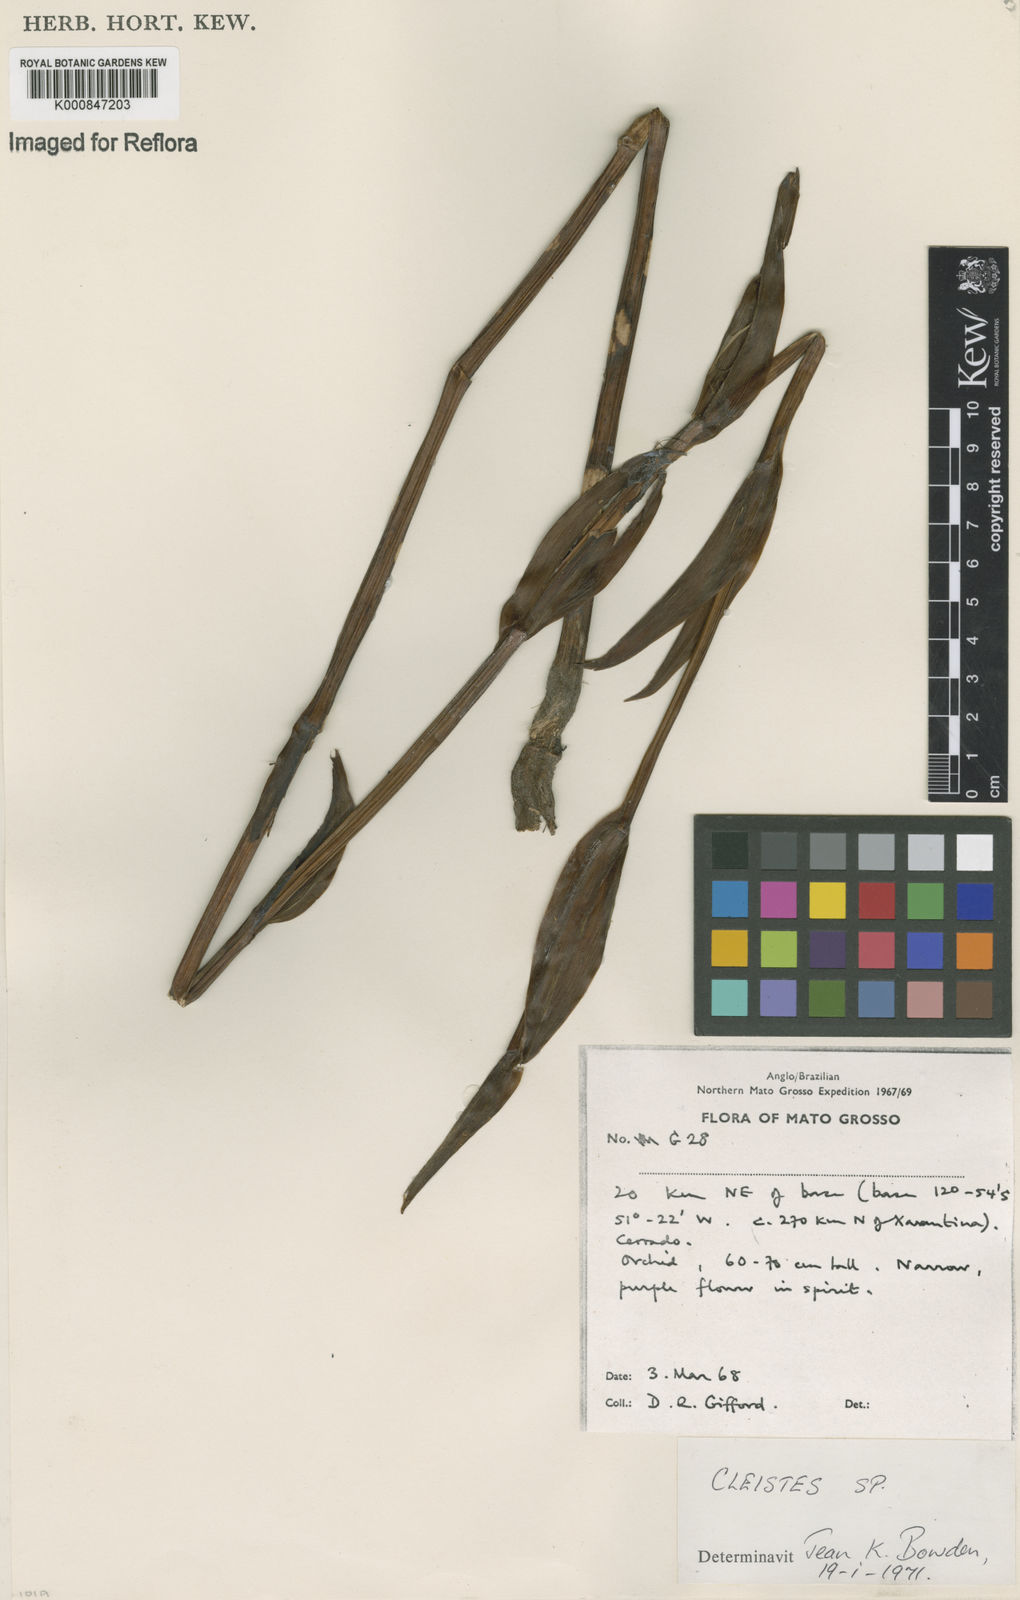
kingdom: Plantae
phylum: Tracheophyta
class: Liliopsida
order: Asparagales
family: Orchidaceae
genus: Cleistes
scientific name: Cleistes
